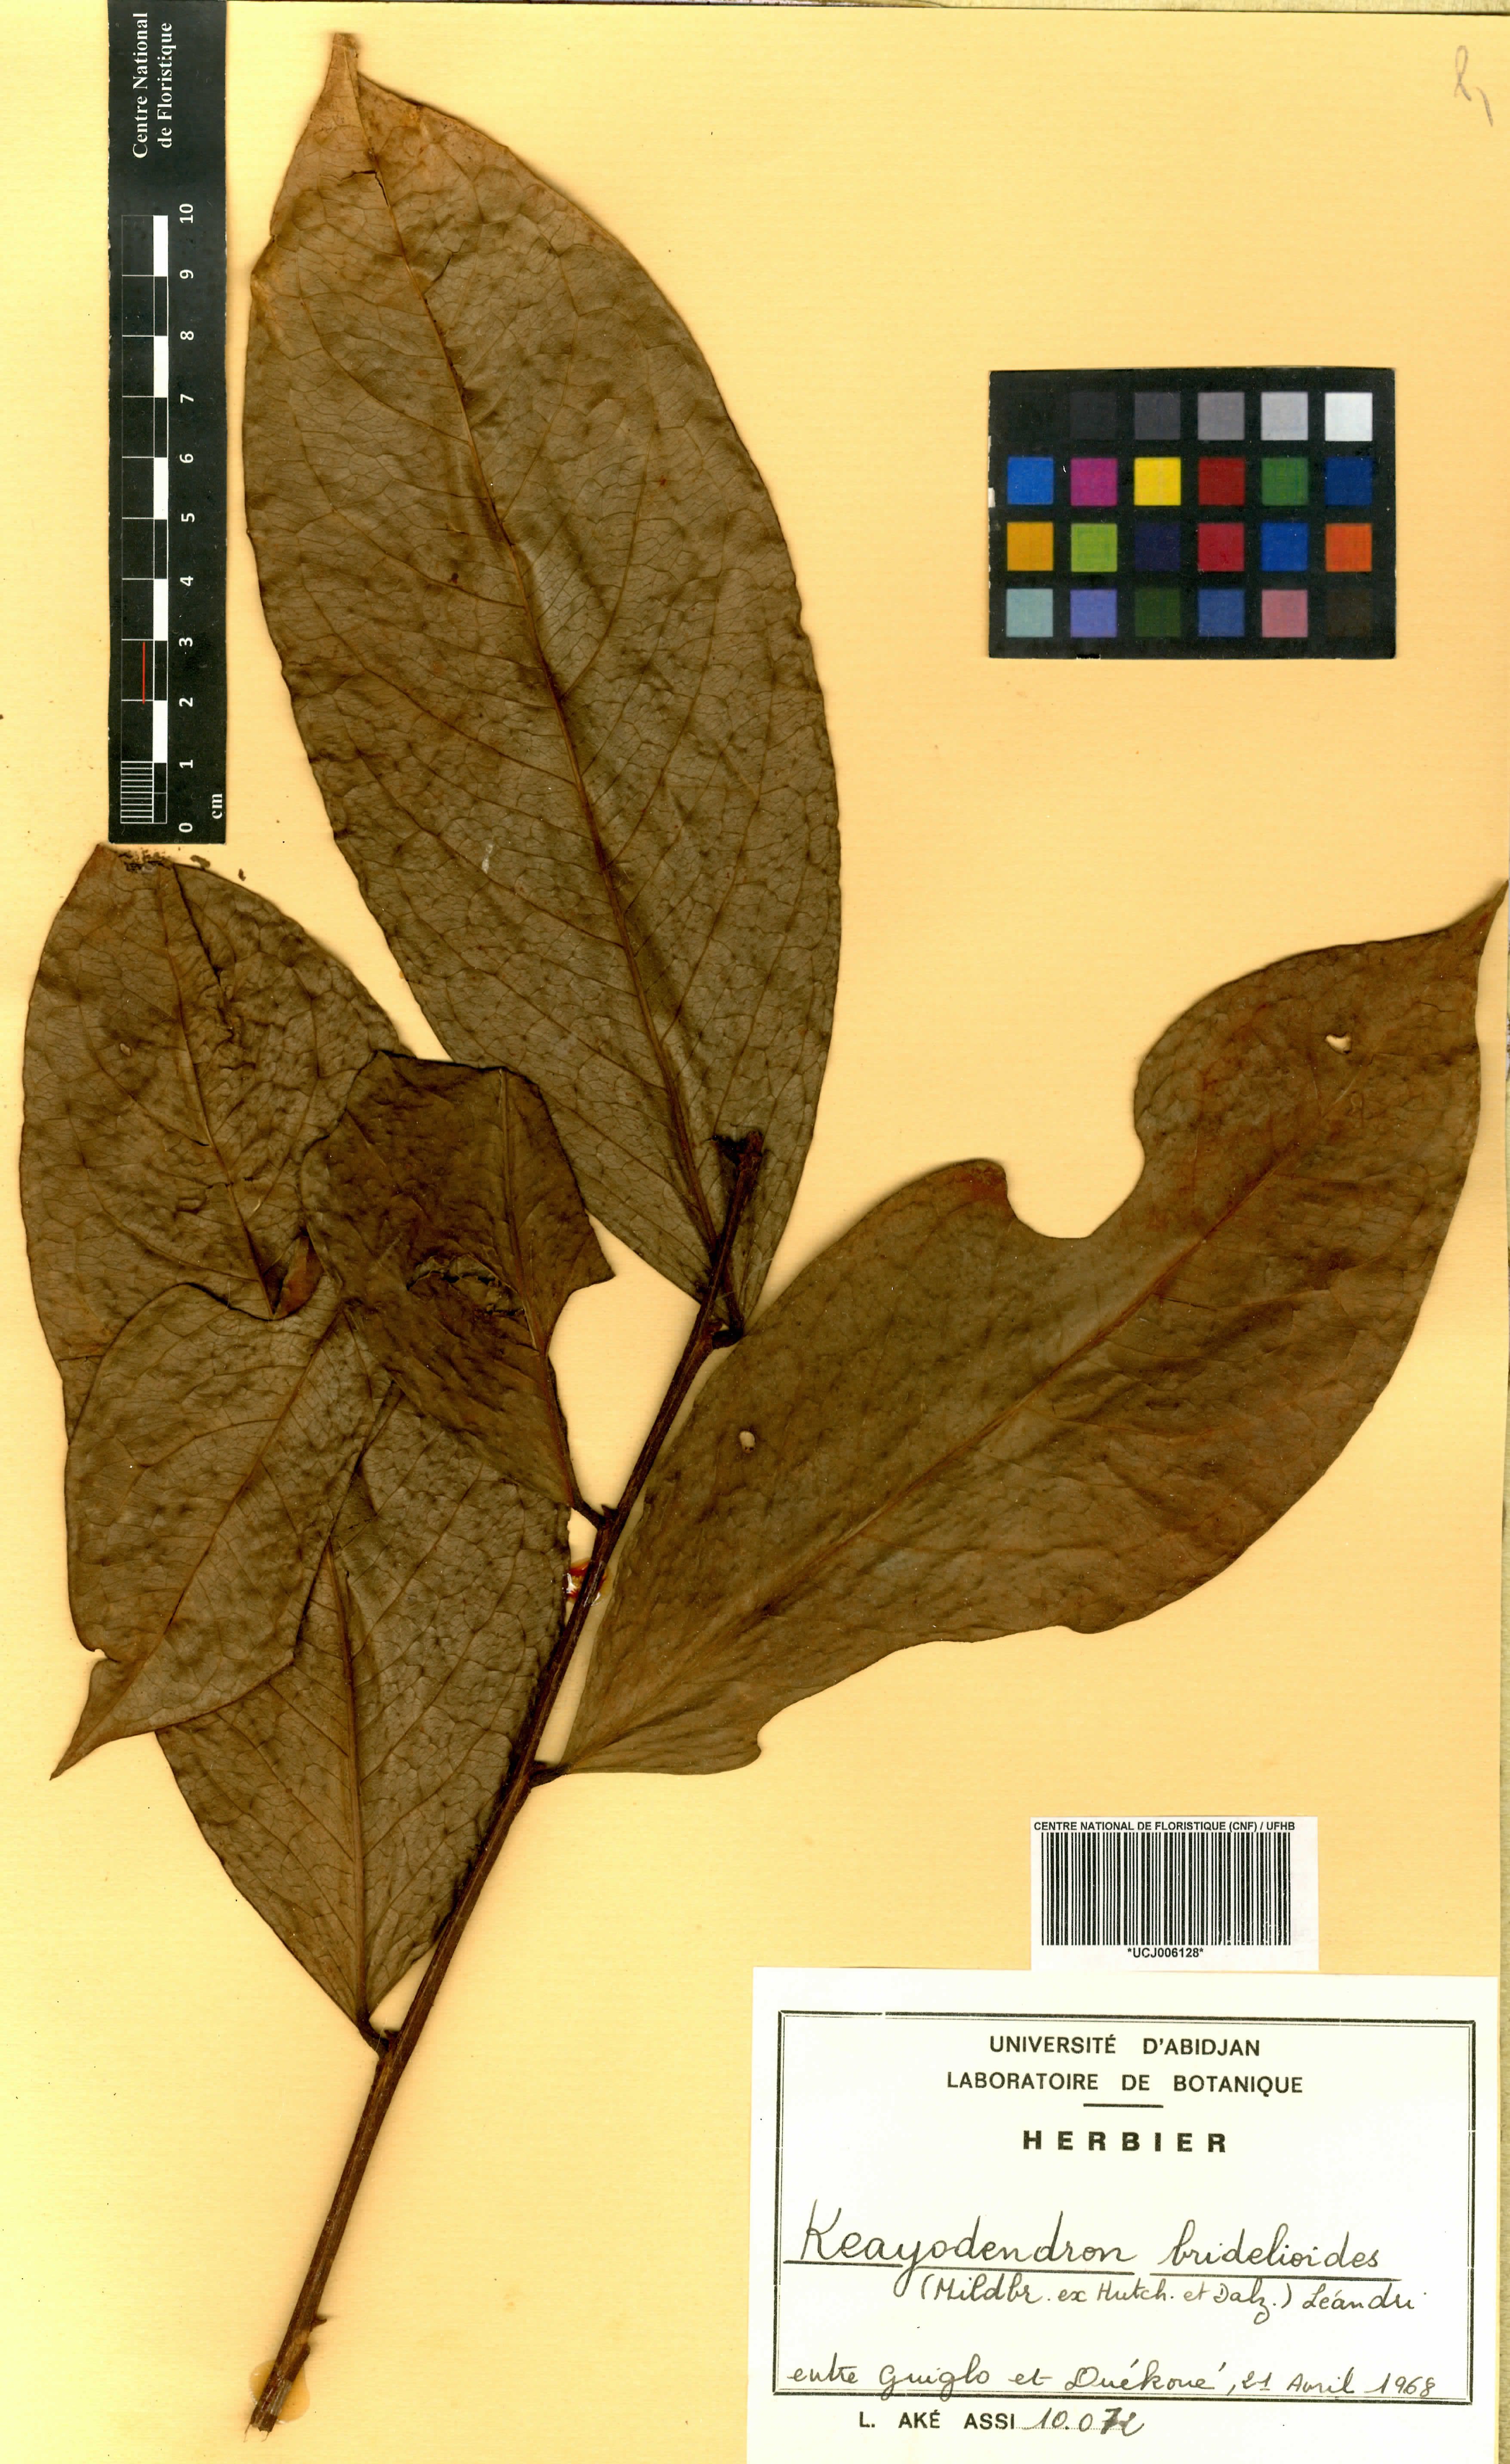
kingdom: Plantae
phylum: Tracheophyta
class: Magnoliopsida
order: Malpighiales
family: Phyllanthaceae
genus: Keayodendron
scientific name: Keayodendron bridelioides
